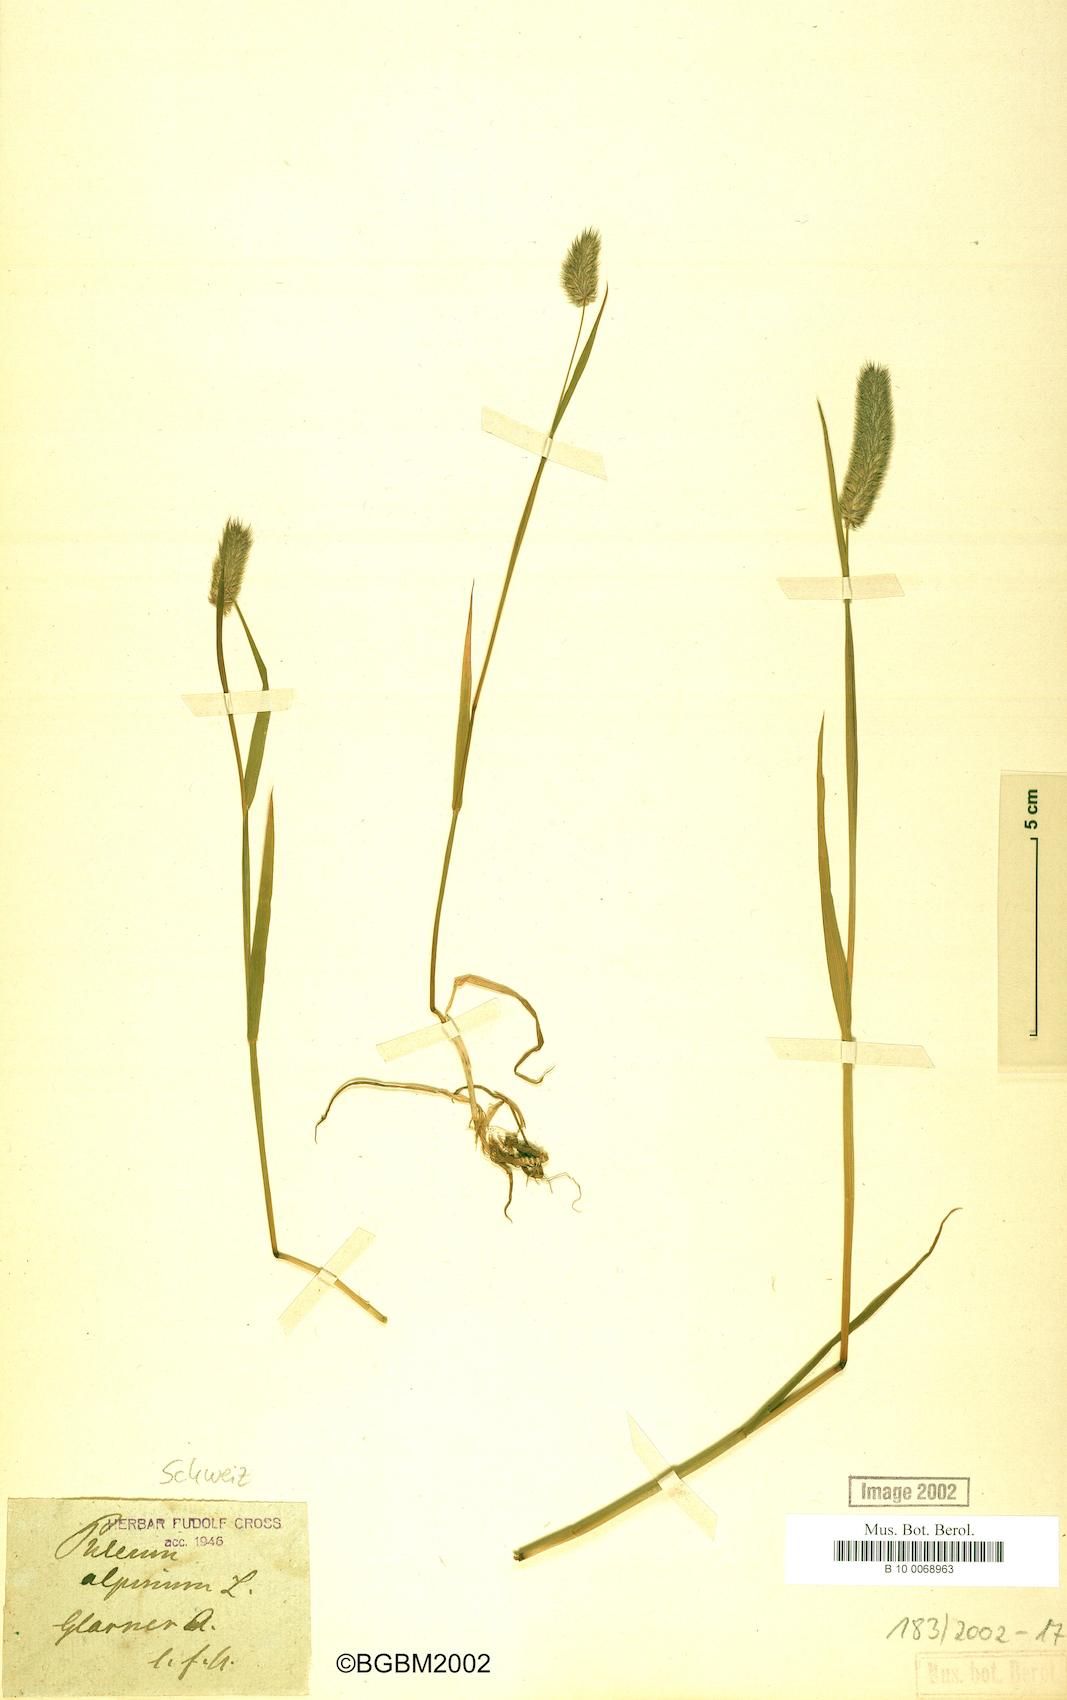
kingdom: Plantae
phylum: Tracheophyta
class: Liliopsida
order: Poales
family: Poaceae
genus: Phleum
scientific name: Phleum alpinum
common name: Alpine cat's-tail
